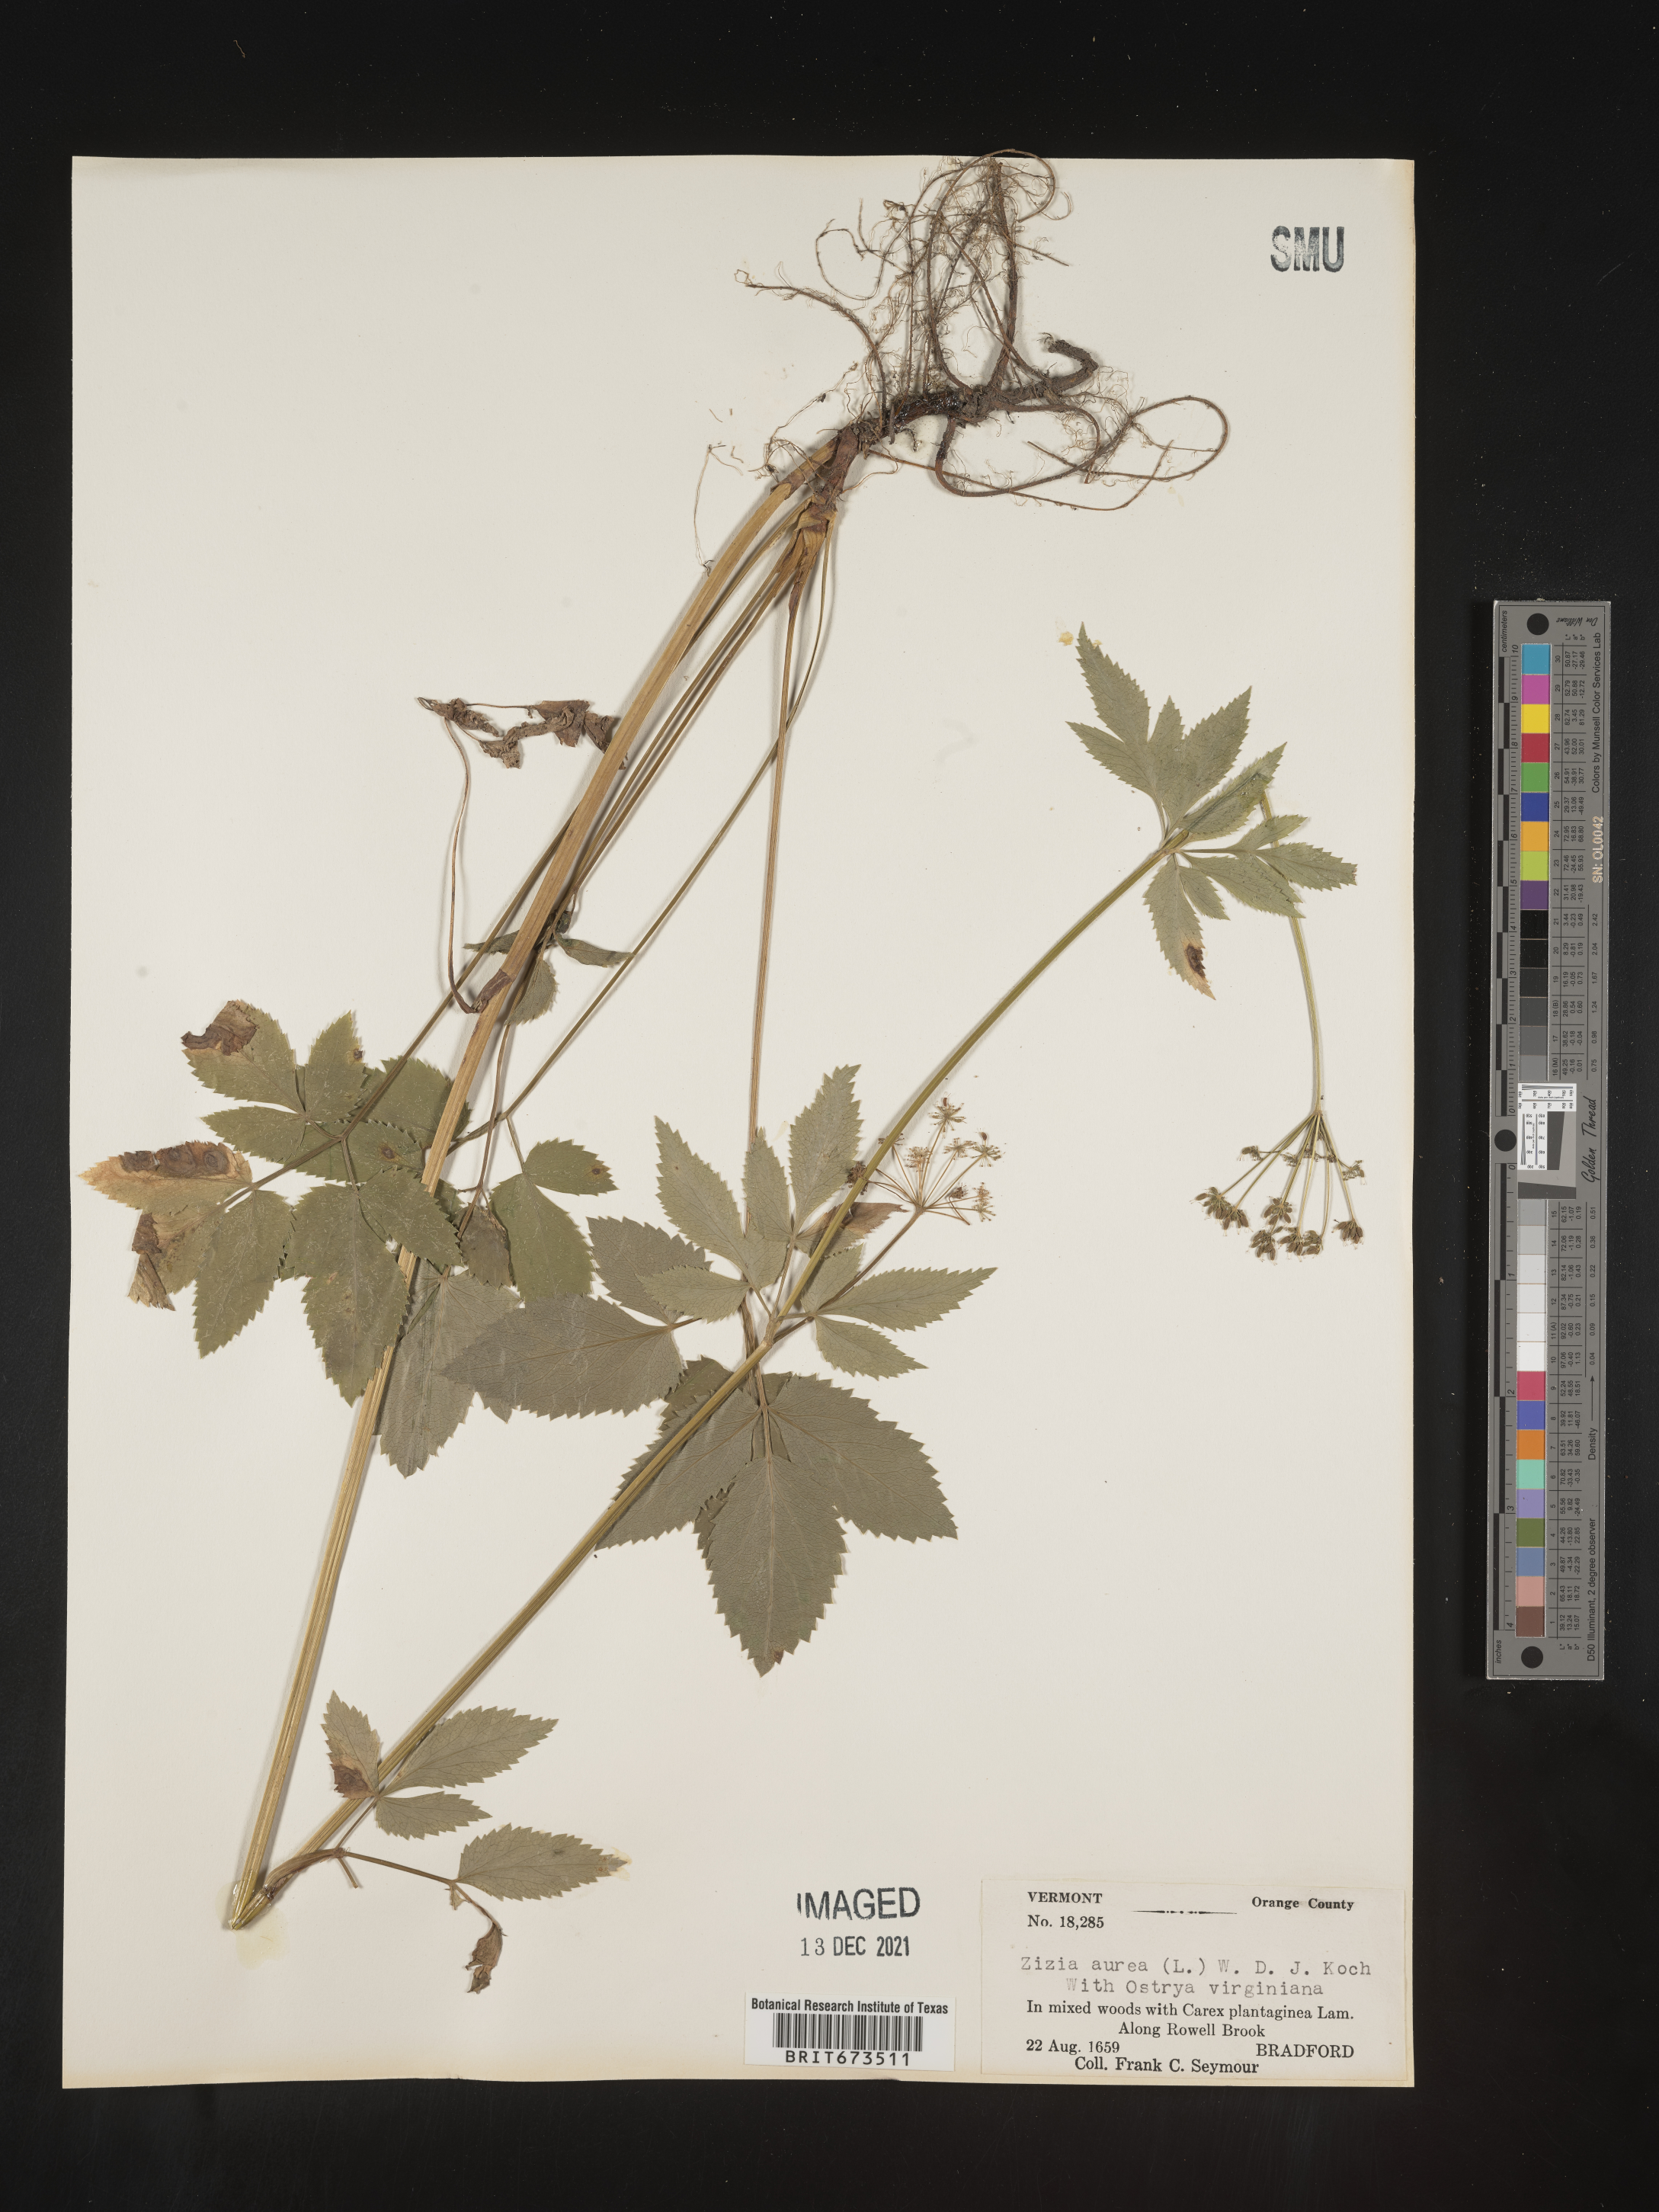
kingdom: Plantae
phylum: Tracheophyta
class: Magnoliopsida
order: Apiales
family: Apiaceae
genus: Zizia
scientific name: Zizia aurea
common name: Golden alexanders
